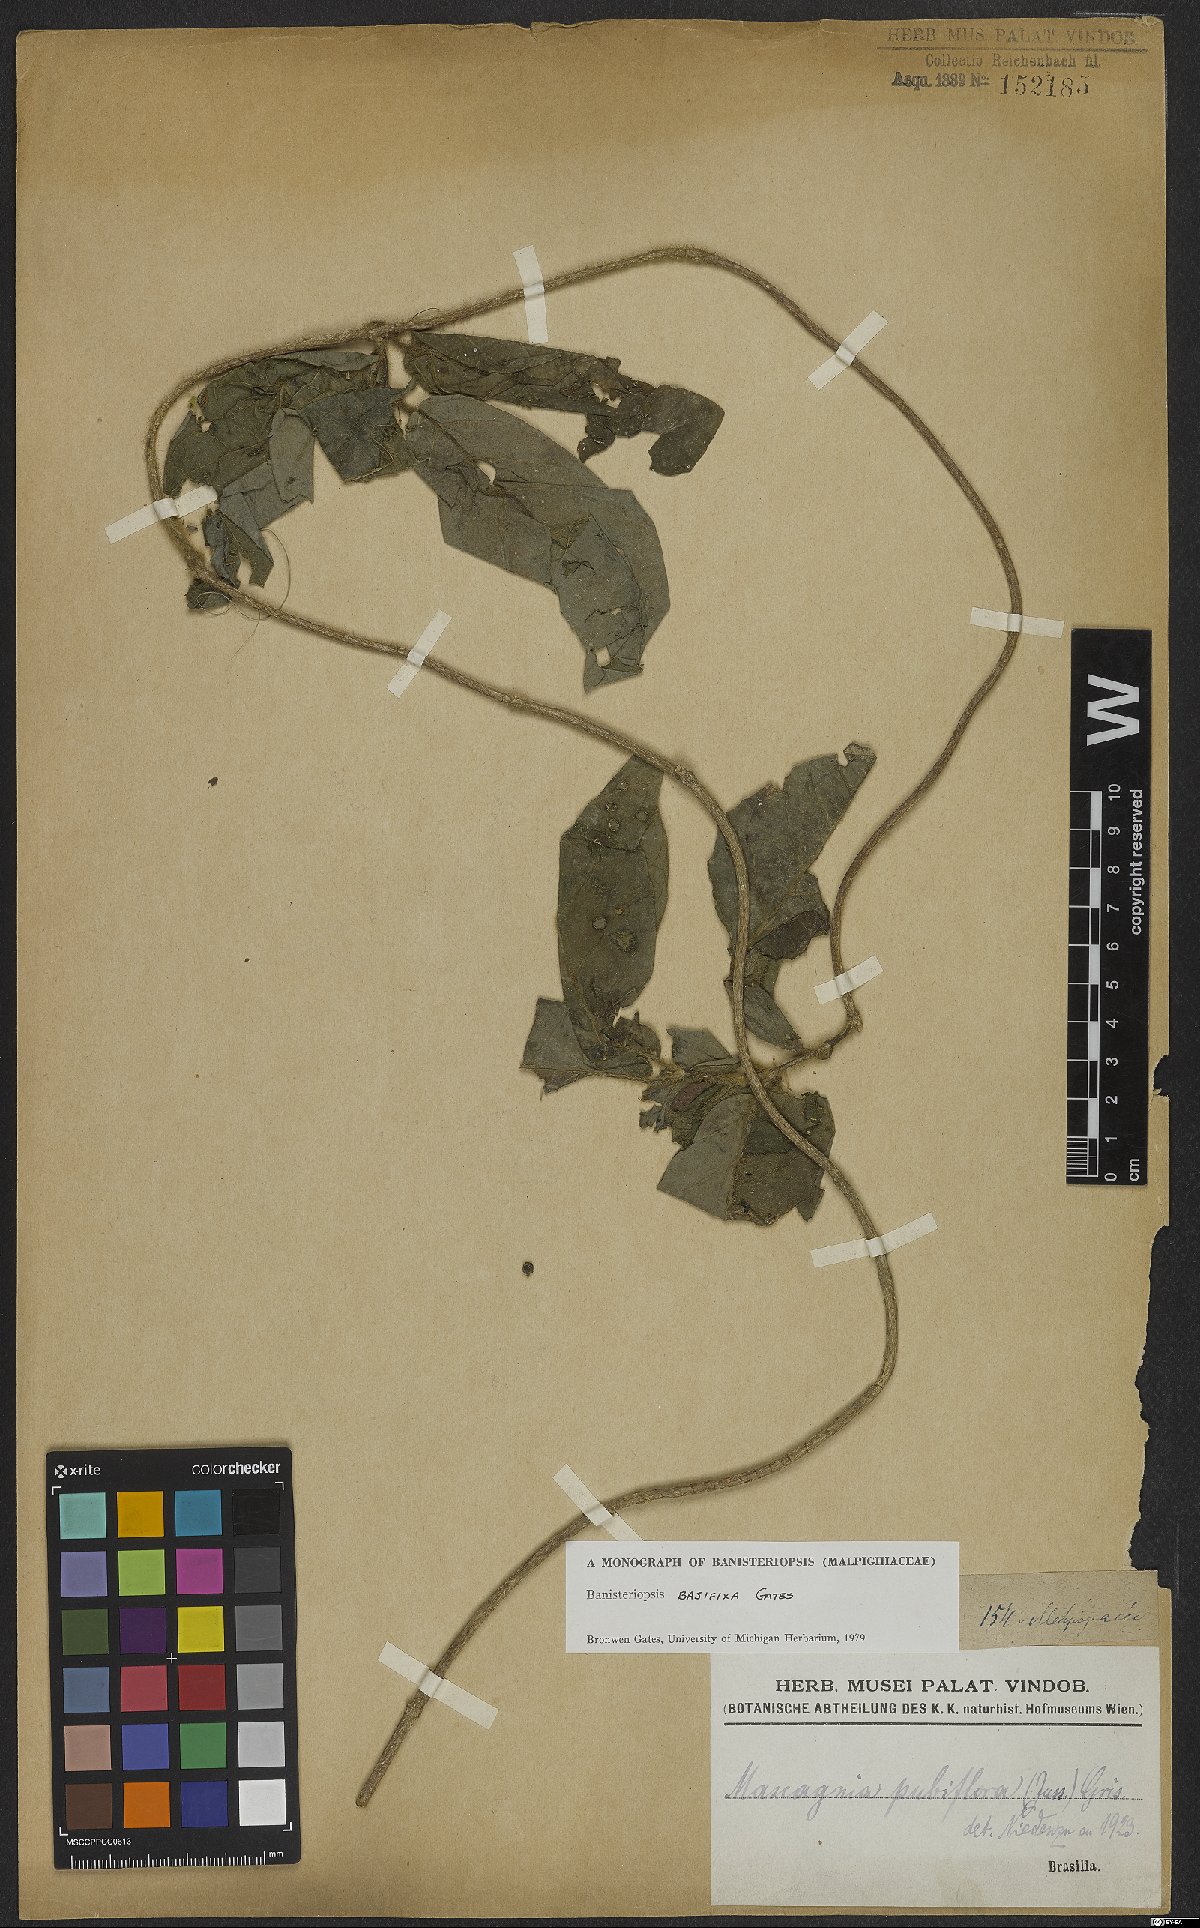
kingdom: Plantae
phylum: Tracheophyta
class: Magnoliopsida
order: Malpighiales
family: Malpighiaceae
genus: Banisteriopsis
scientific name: Banisteriopsis basifixa
